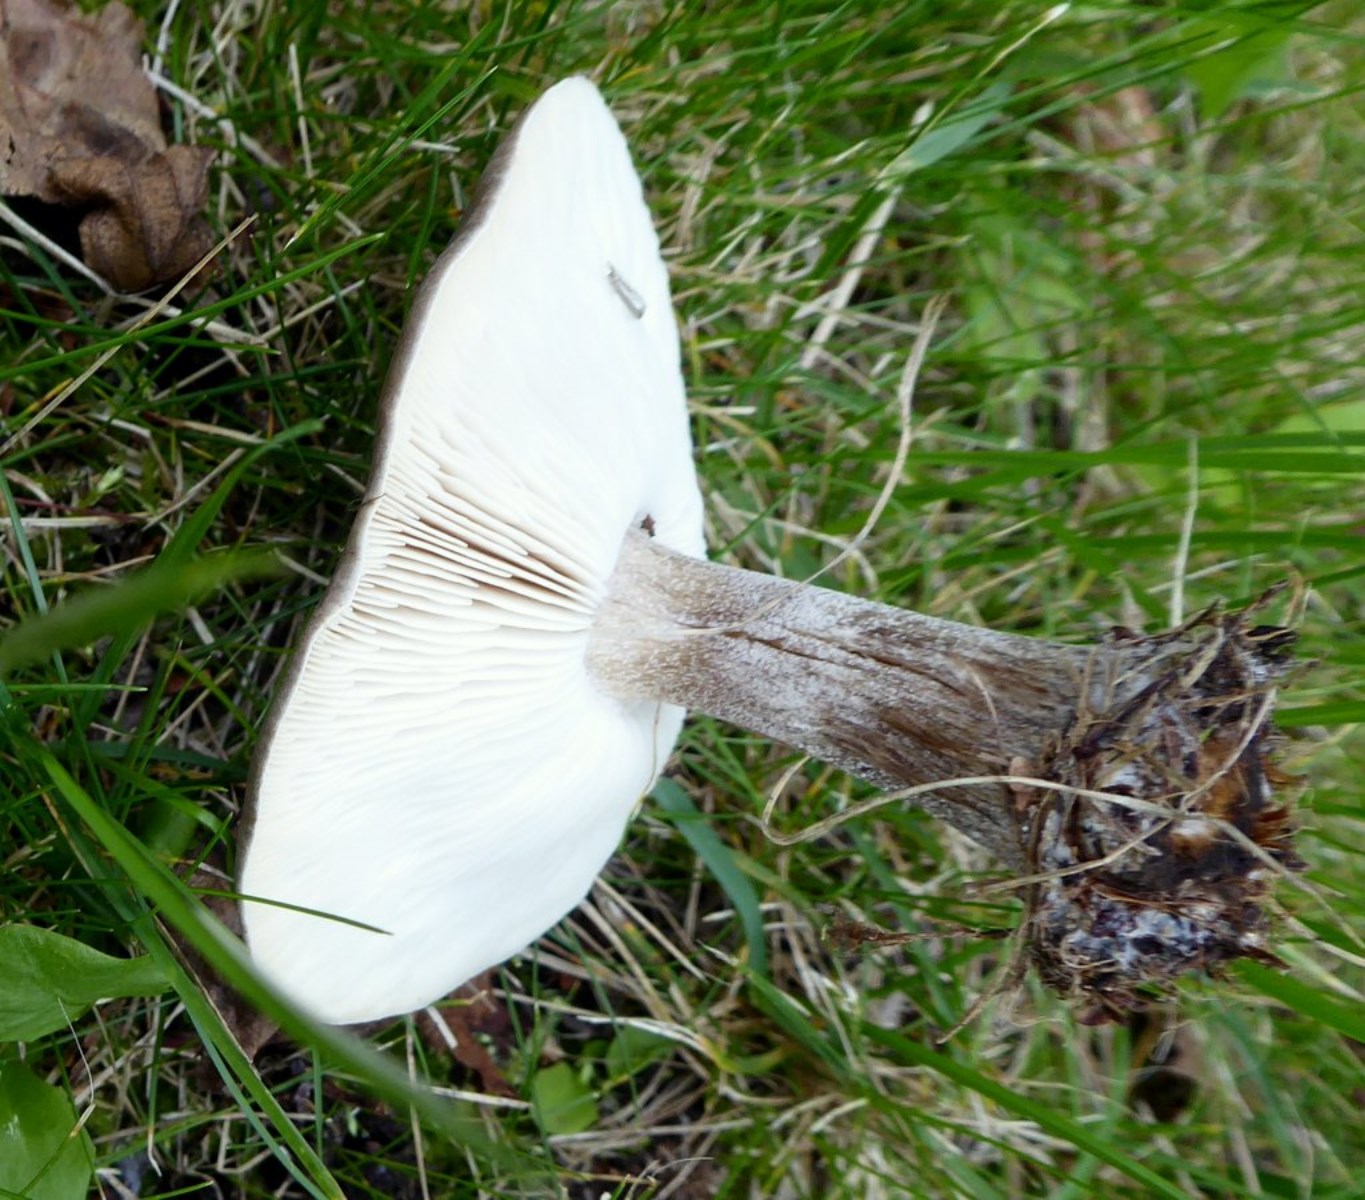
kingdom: Fungi
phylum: Basidiomycota
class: Agaricomycetes
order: Agaricales
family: Tricholomataceae
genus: Melanoleuca
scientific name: Melanoleuca
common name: munkehat
